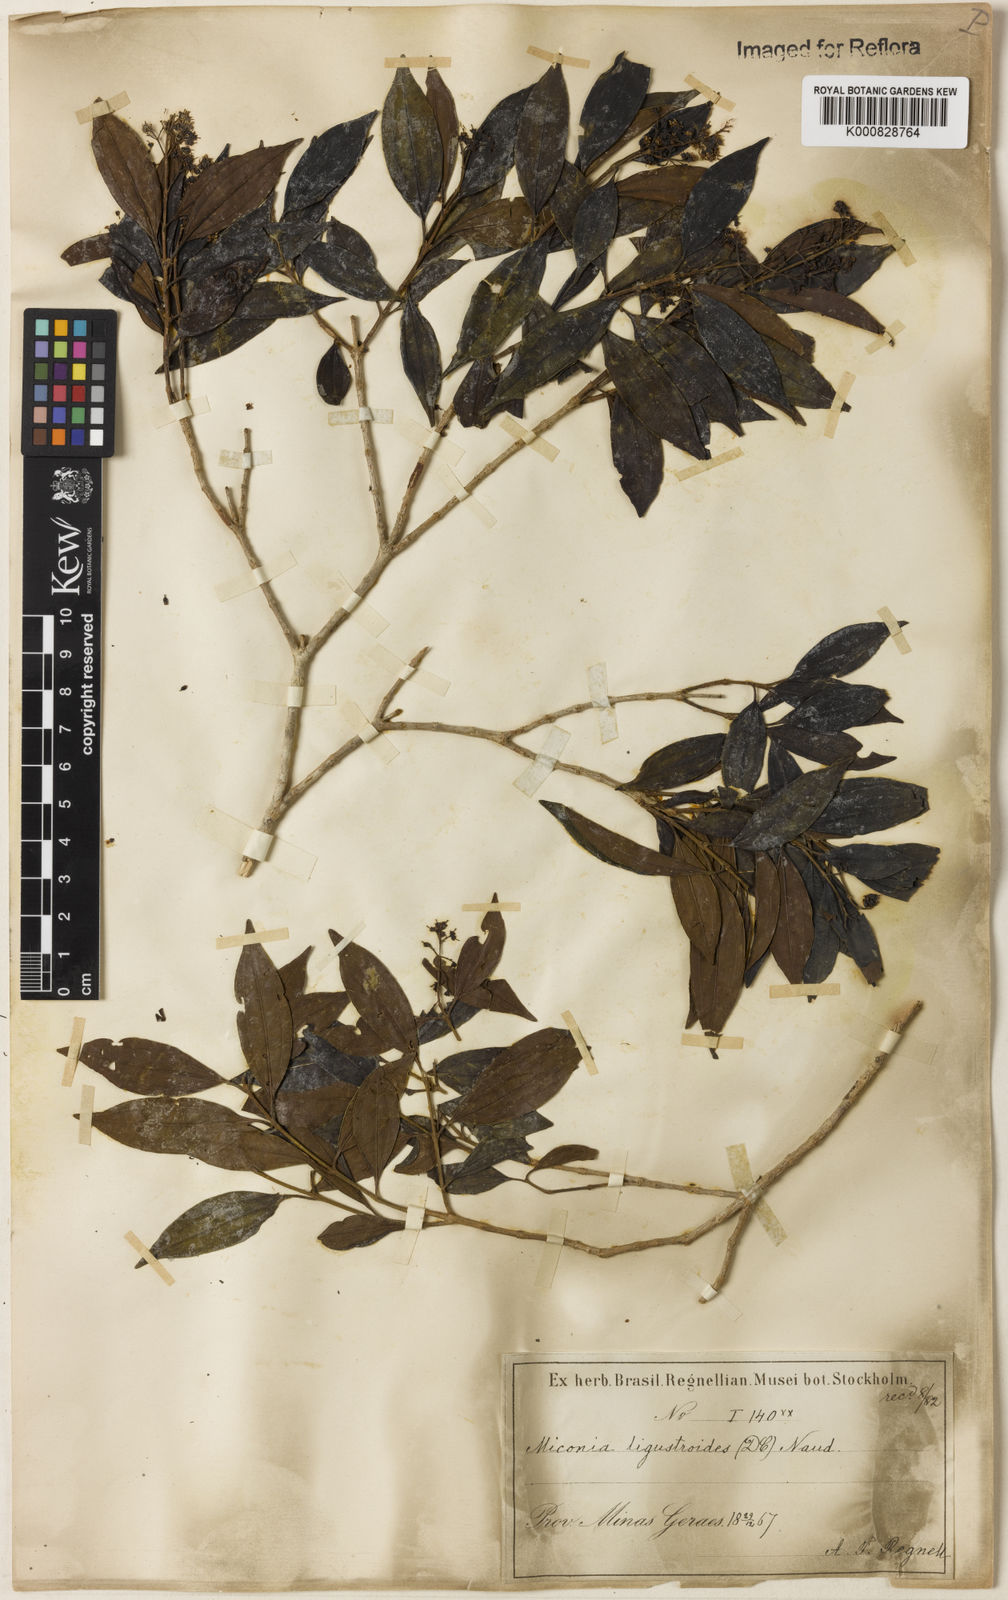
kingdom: Plantae
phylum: Tracheophyta
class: Magnoliopsida
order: Myrtales
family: Melastomataceae
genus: Miconia
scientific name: Miconia ligustroides
